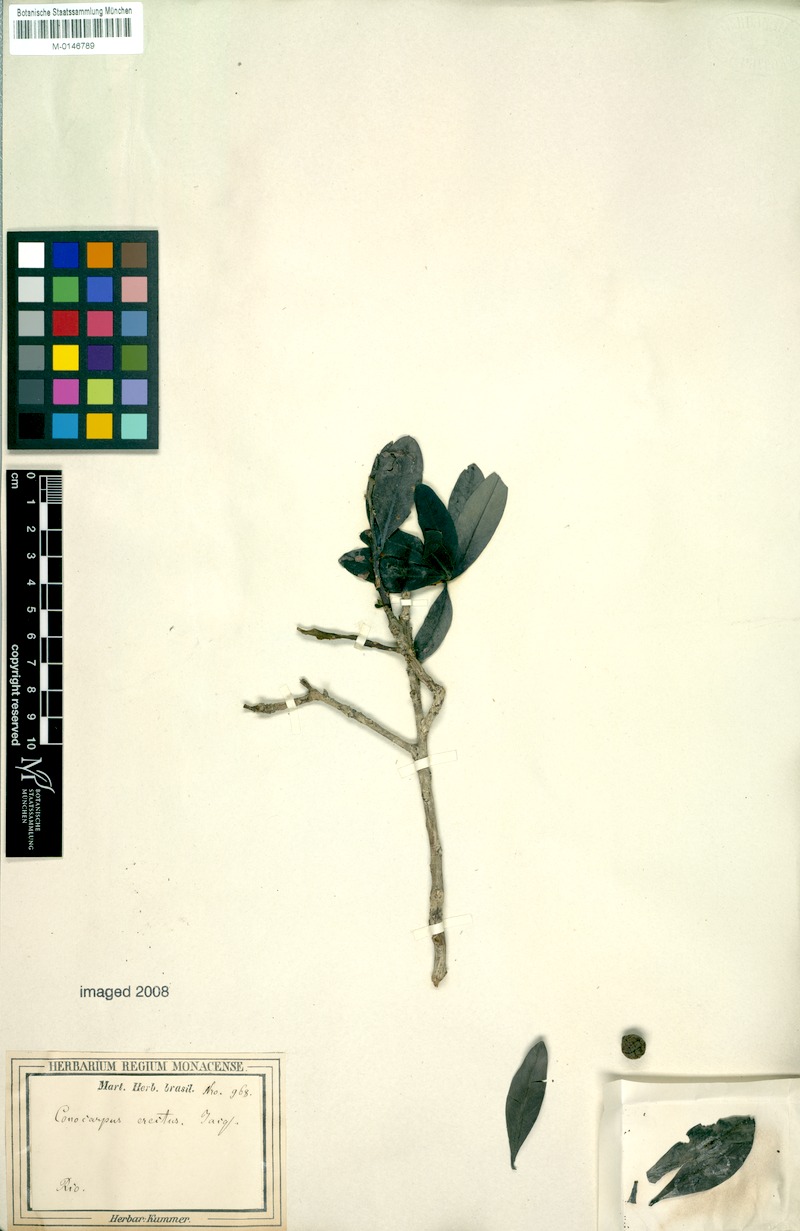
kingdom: Plantae
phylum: Tracheophyta
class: Magnoliopsida
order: Myrtales
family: Combretaceae
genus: Conocarpus
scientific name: Conocarpus erectus
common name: Button mangrove
